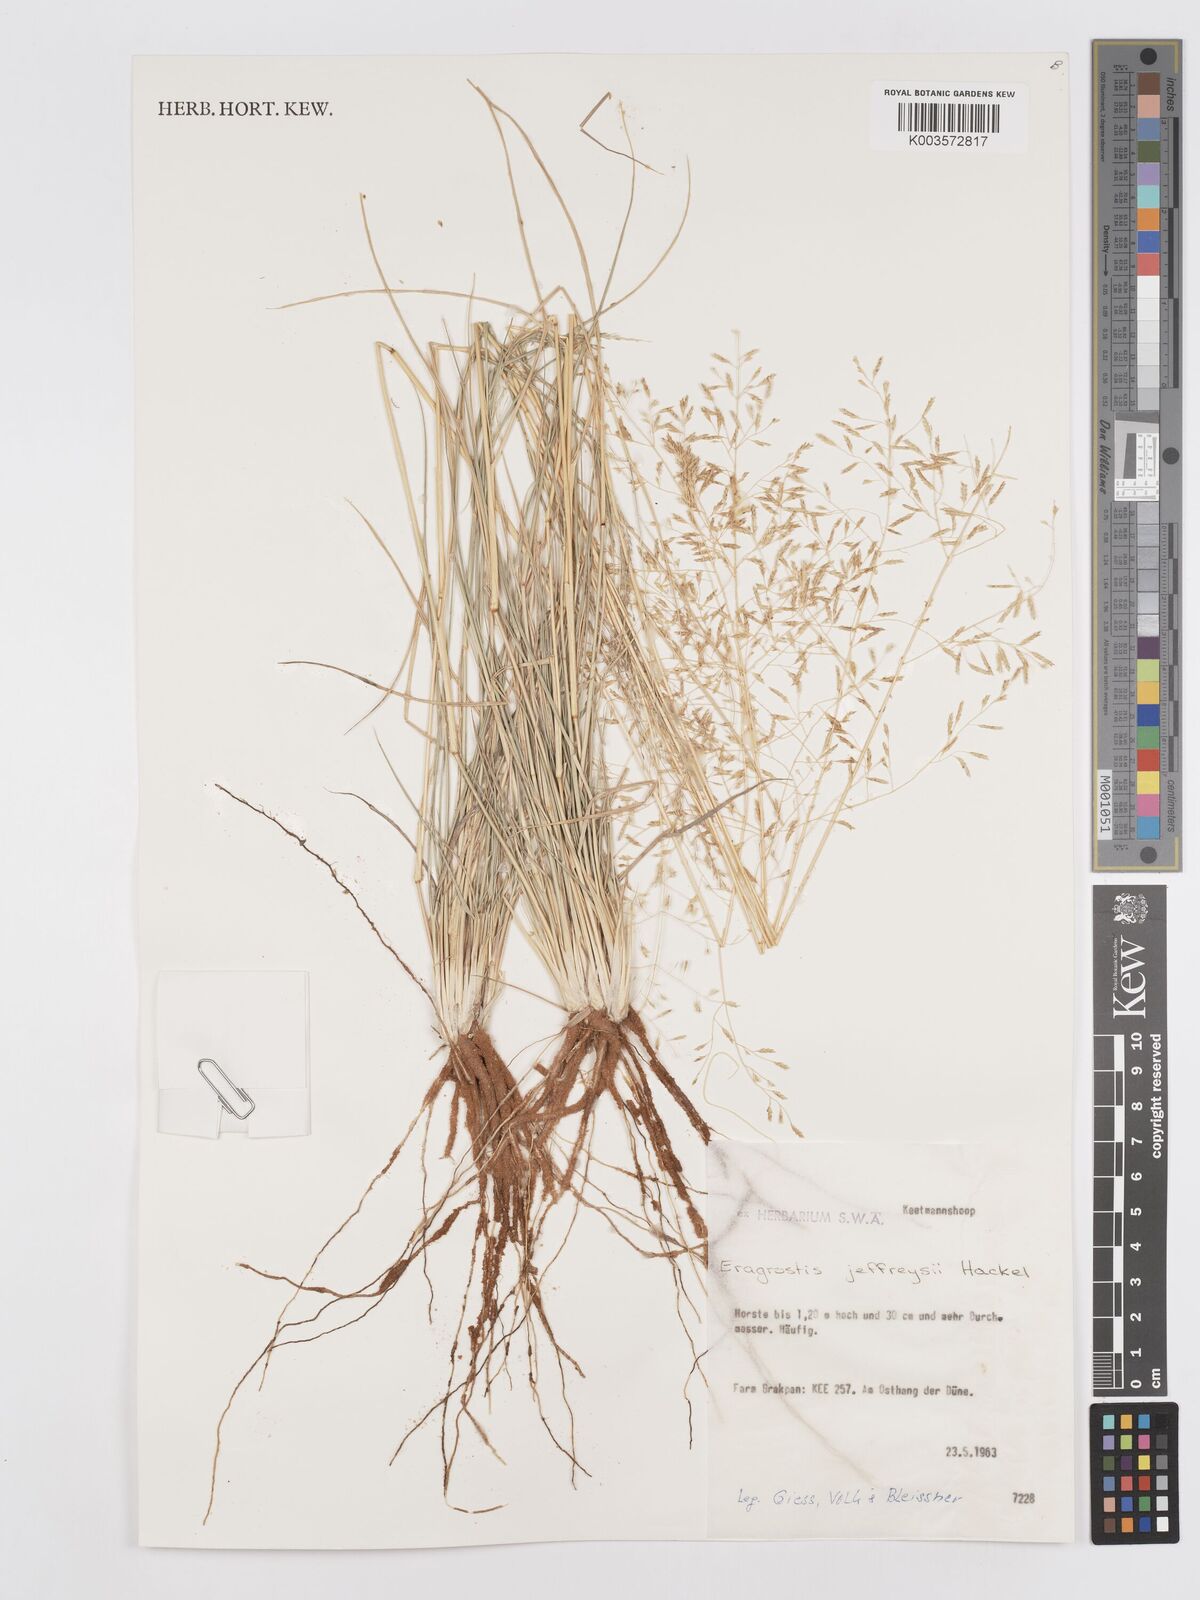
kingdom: Plantae
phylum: Tracheophyta
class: Liliopsida
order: Poales
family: Poaceae
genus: Eragrostis
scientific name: Eragrostis curvula
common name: African love-grass
